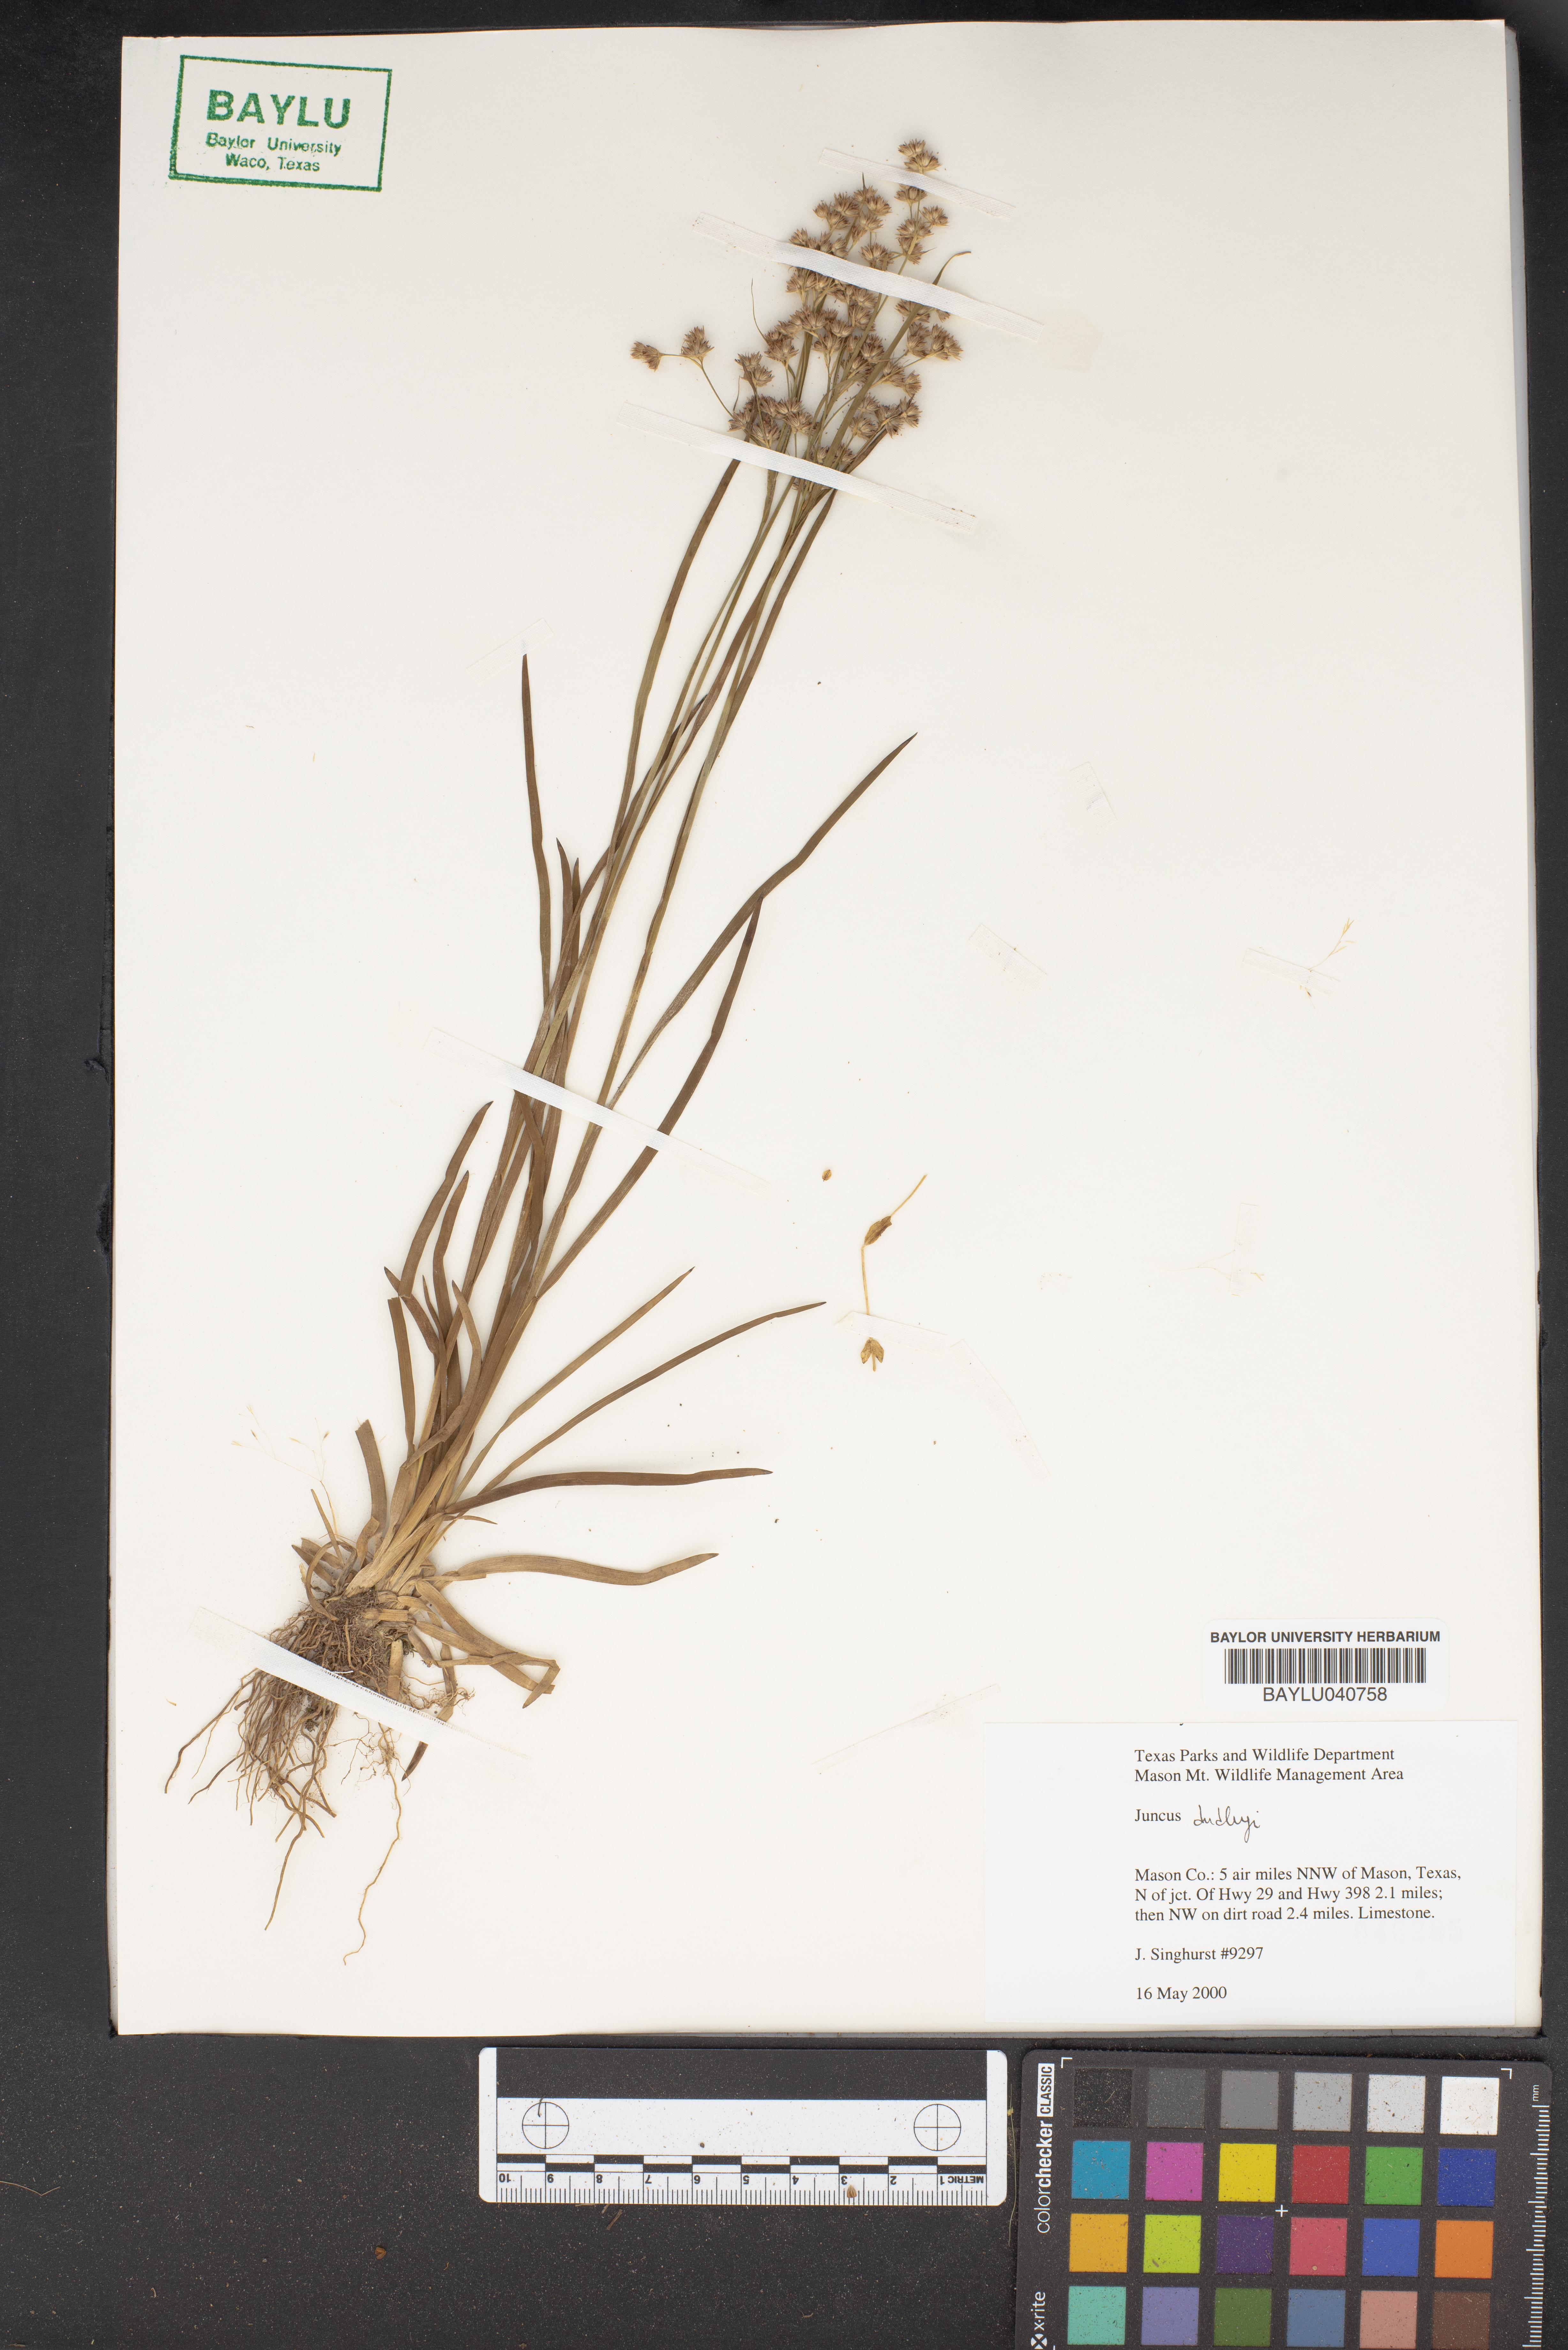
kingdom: Plantae
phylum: Tracheophyta
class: Liliopsida
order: Poales
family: Juncaceae
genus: Juncus
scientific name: Juncus dudleyi
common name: Dudley's rush
